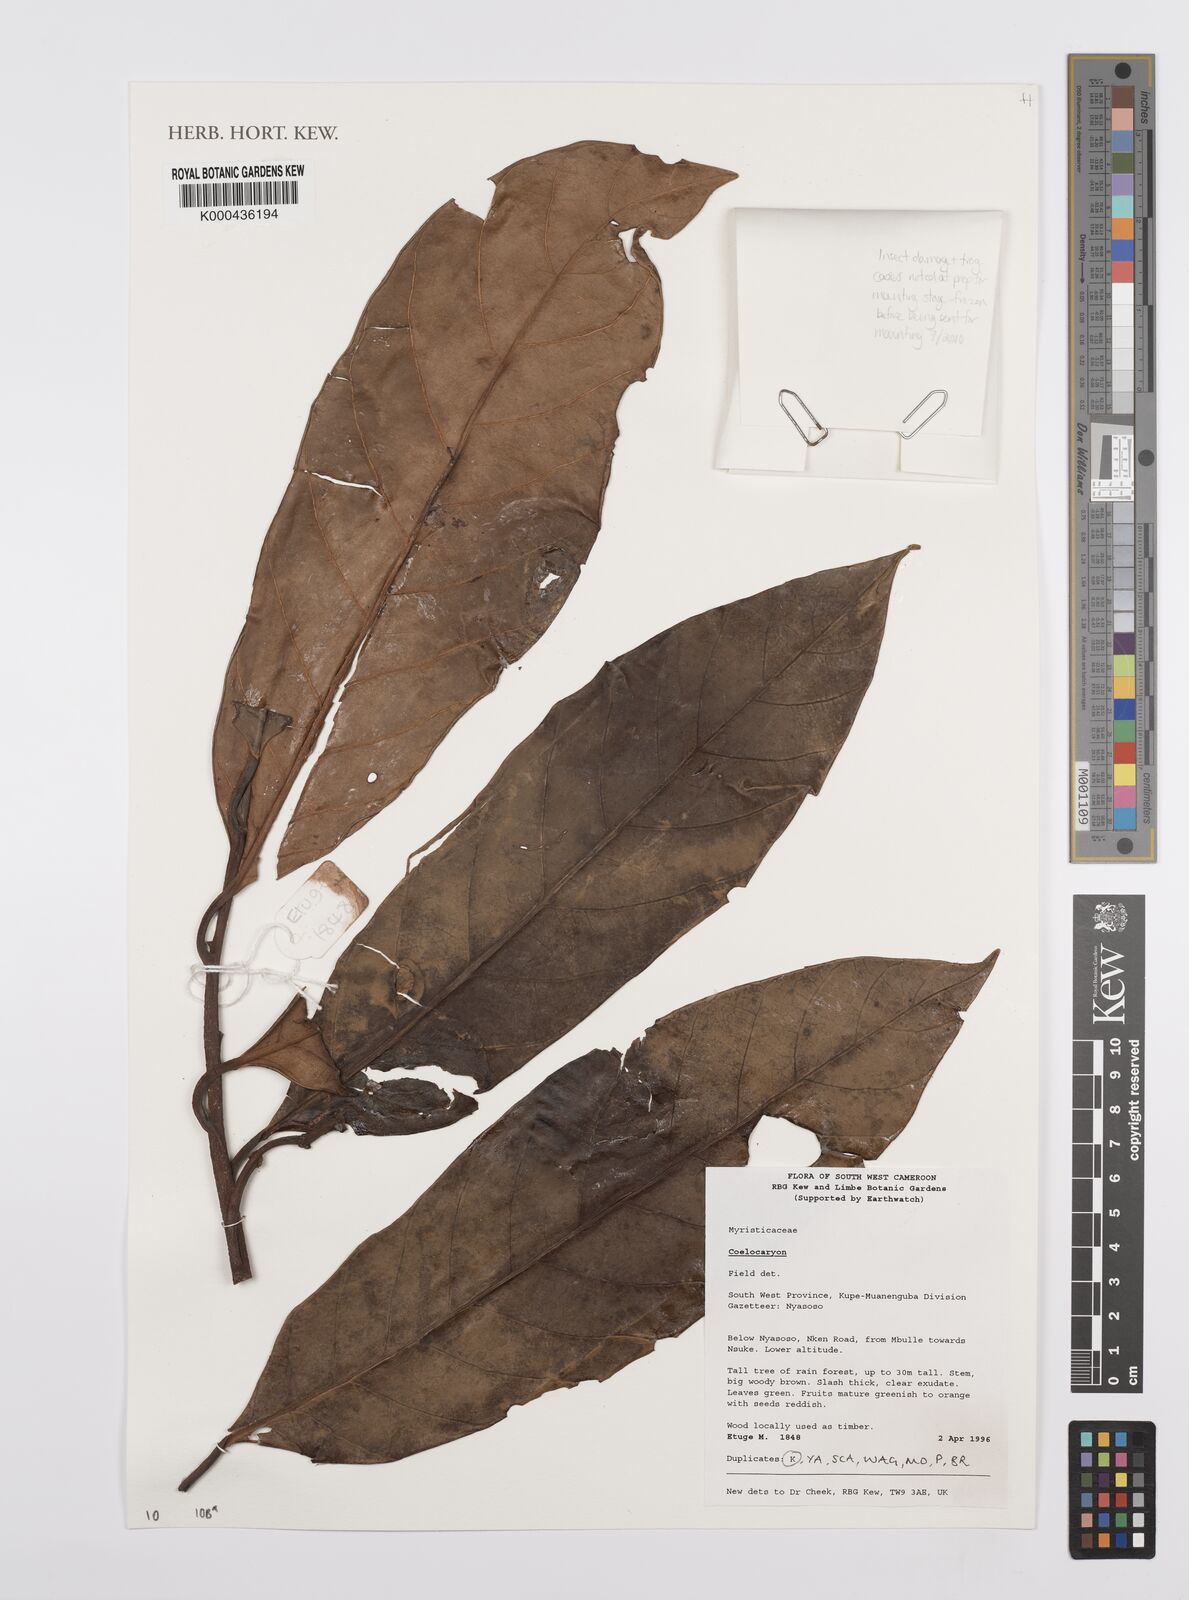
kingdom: Plantae
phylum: Tracheophyta
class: Magnoliopsida
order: Magnoliales
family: Myristicaceae
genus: Coelocaryon
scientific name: Coelocaryon
